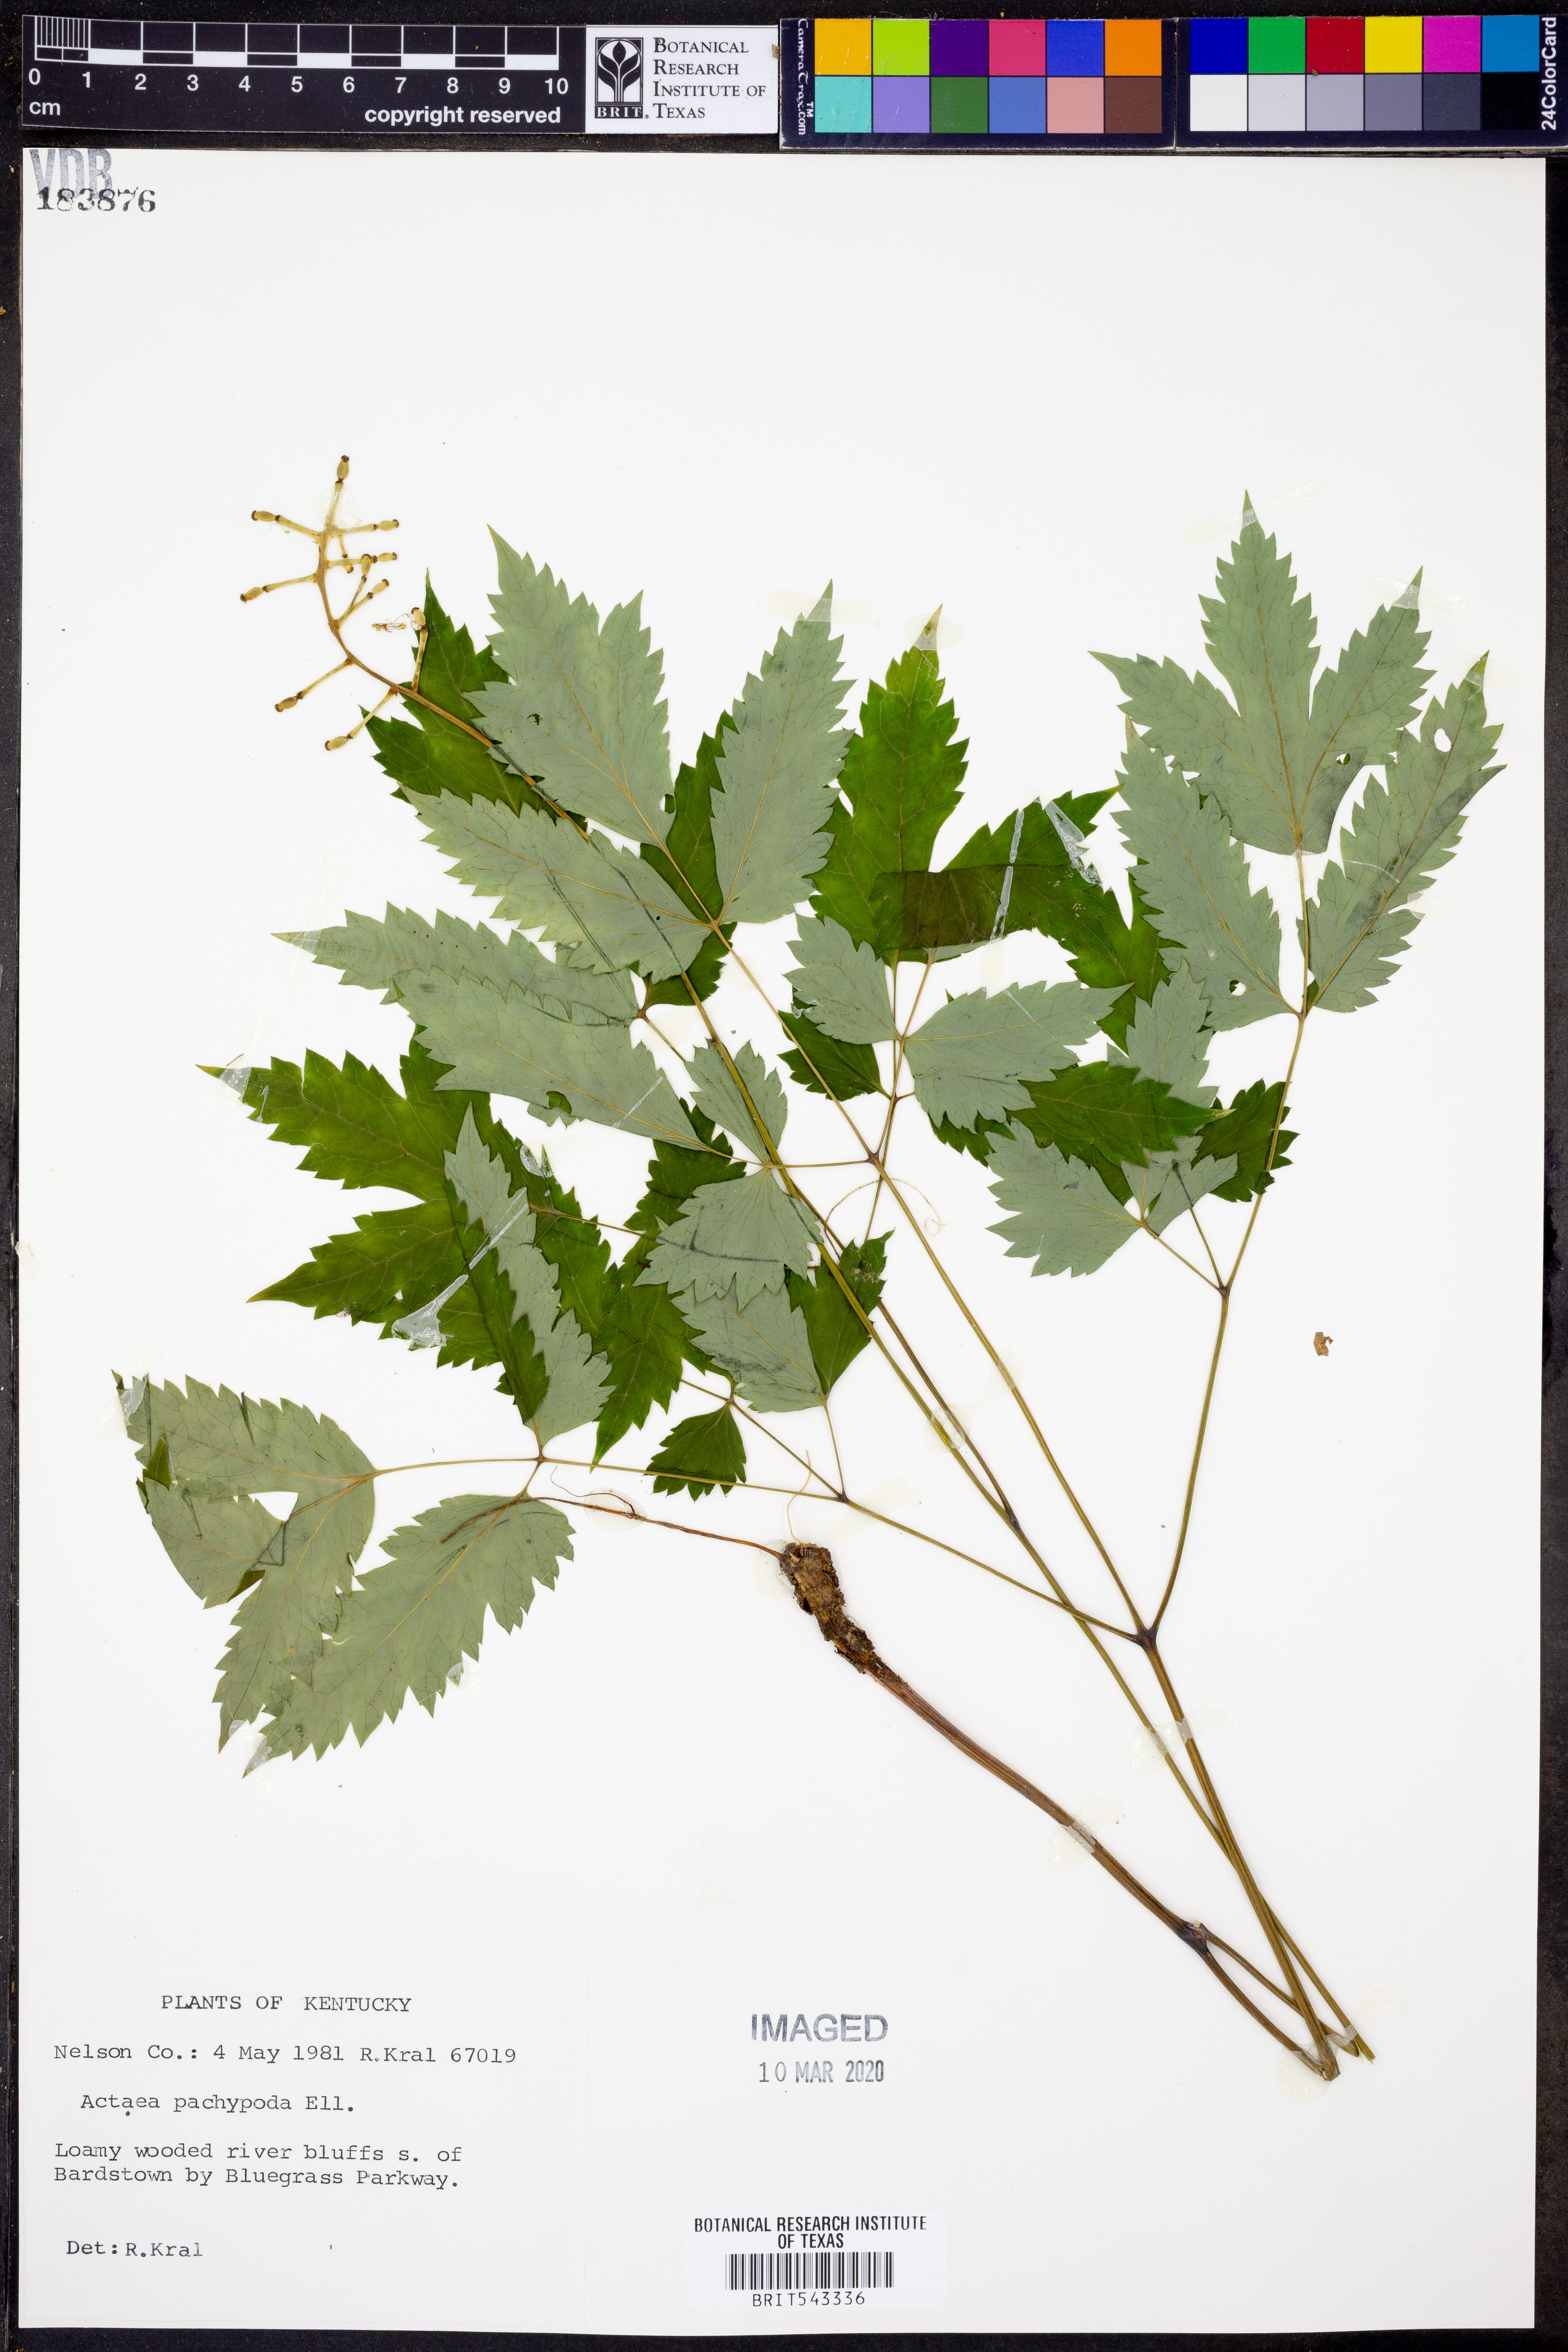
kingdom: Plantae
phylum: Tracheophyta
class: Magnoliopsida
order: Ranunculales
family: Ranunculaceae
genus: Actaea
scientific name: Actaea pachypoda
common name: Doll's-eyes
